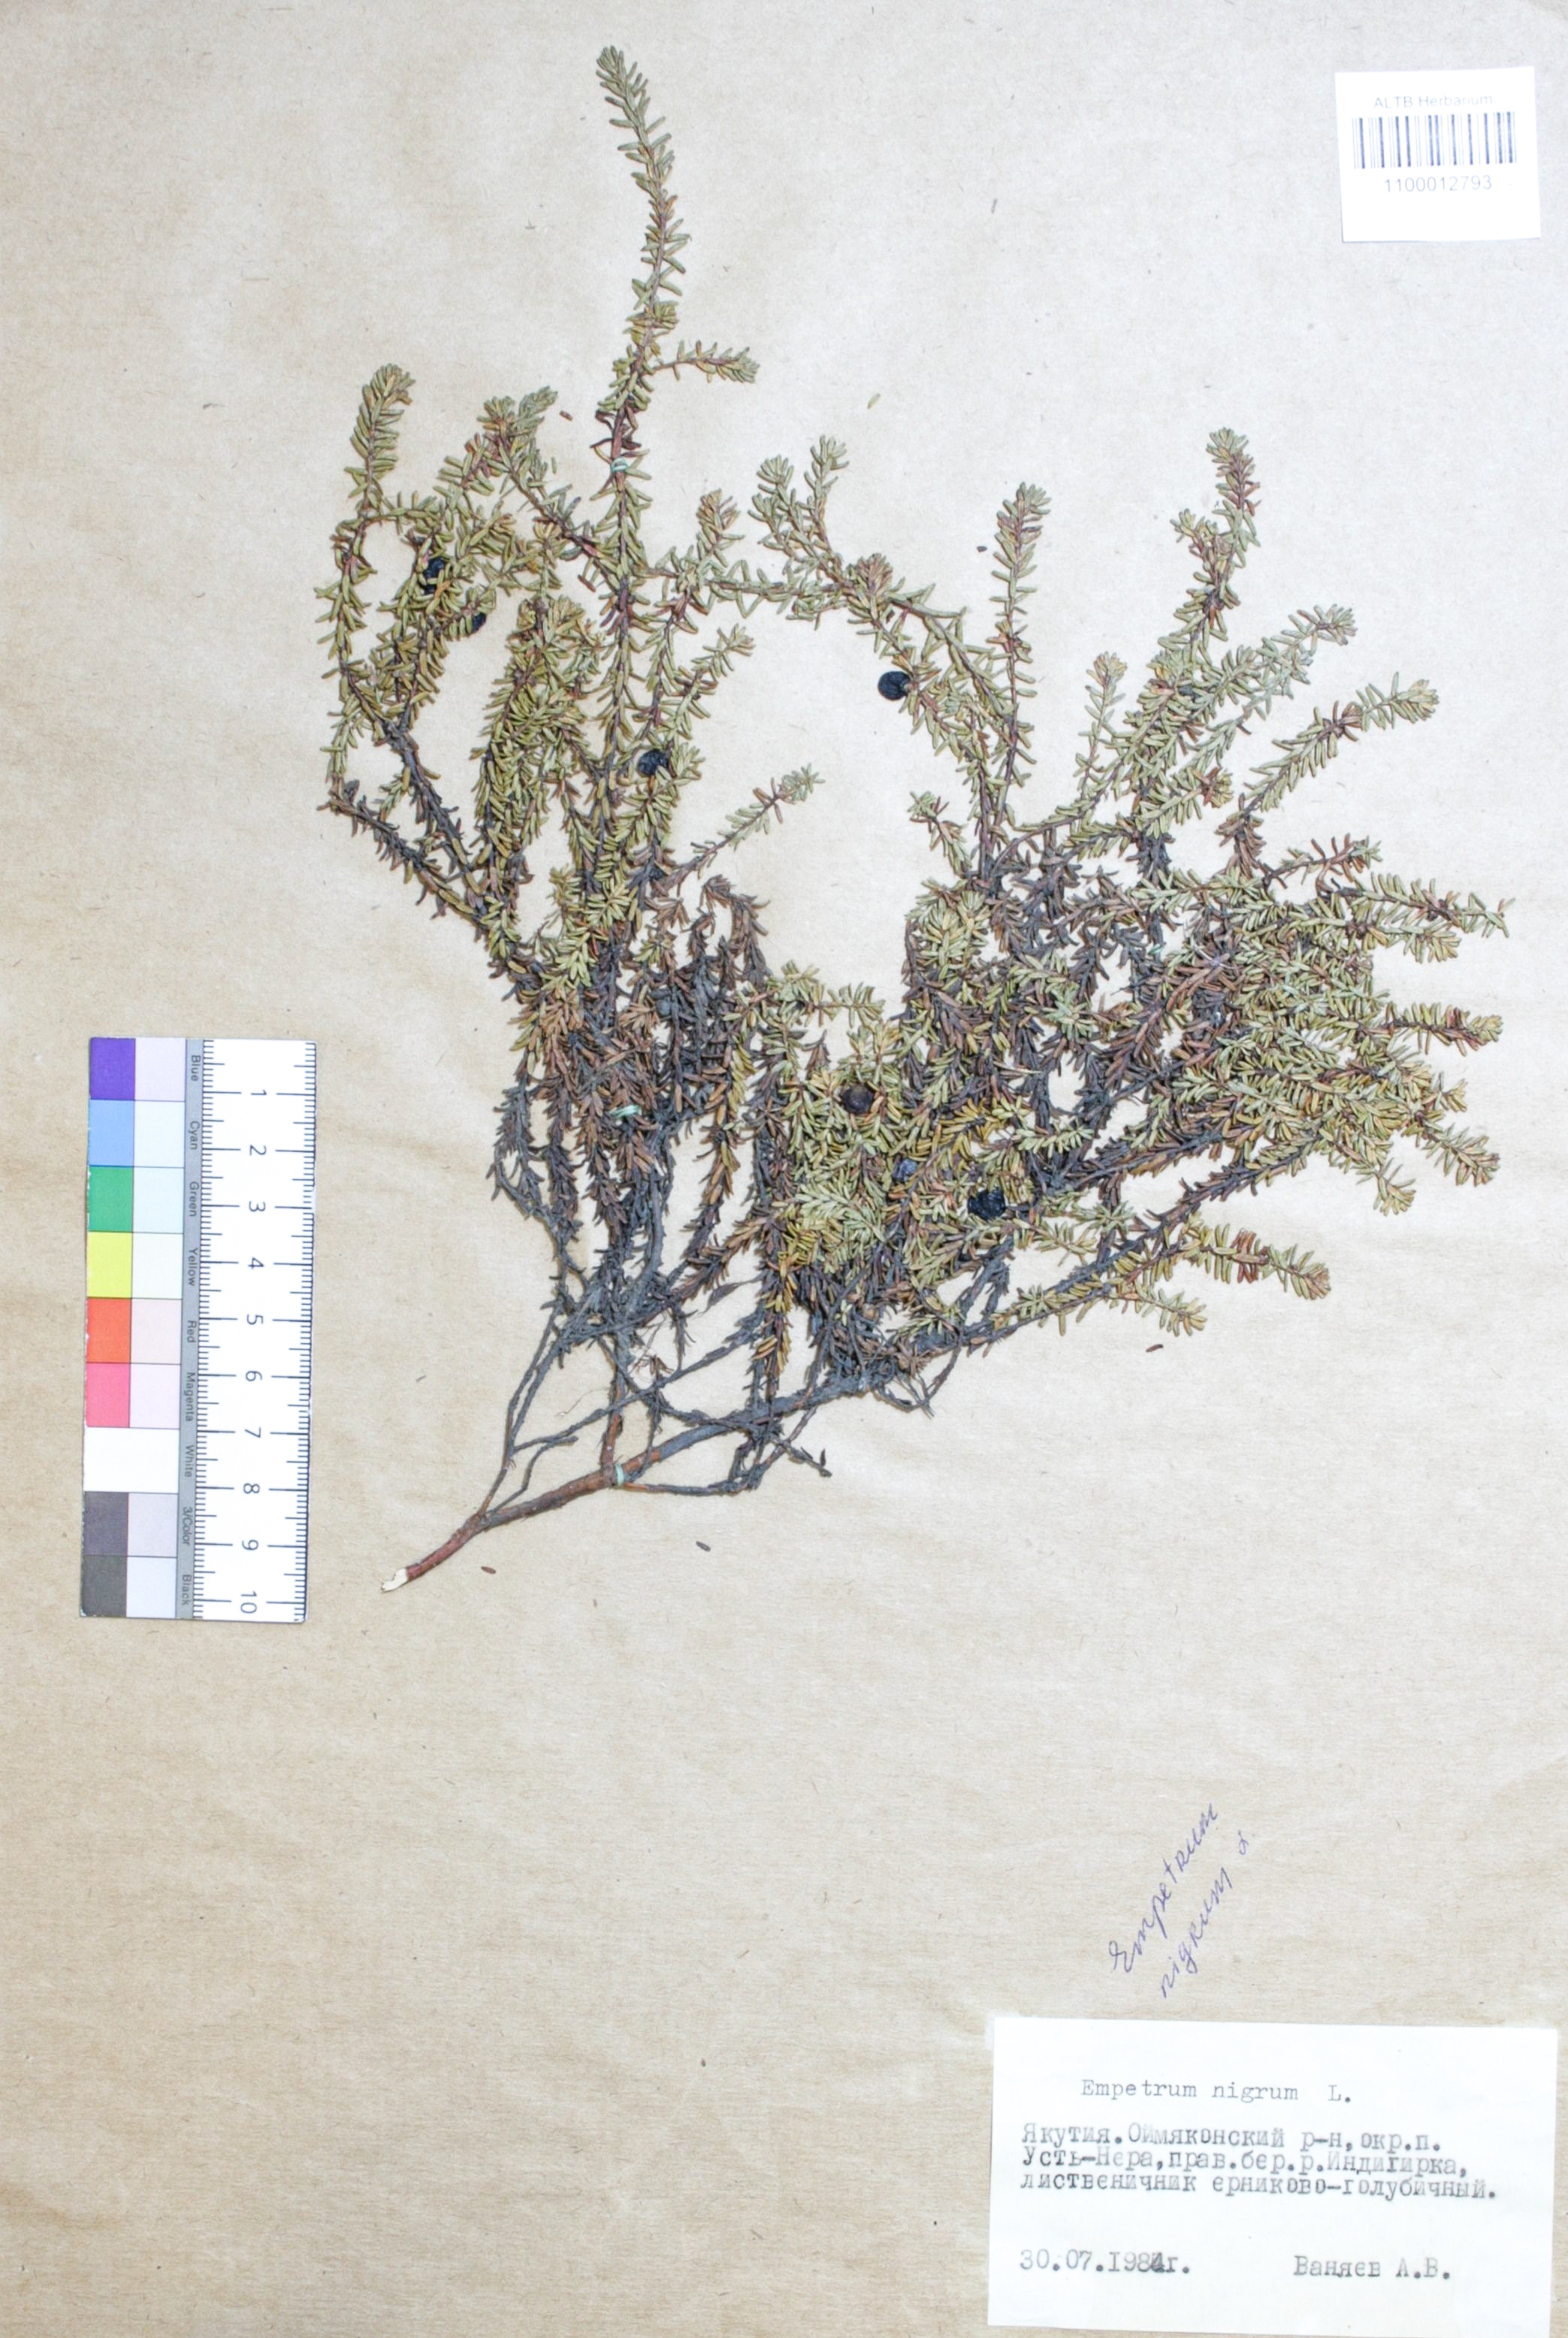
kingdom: Plantae
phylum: Tracheophyta
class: Magnoliopsida
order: Ericales
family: Ericaceae
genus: Empetrum
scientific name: Empetrum nigrum
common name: Black crowberry
